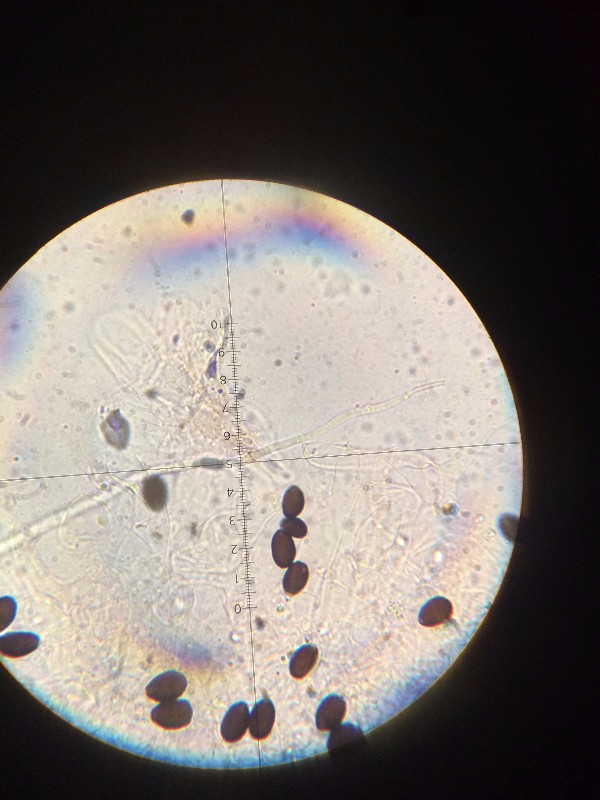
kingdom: Fungi
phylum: Basidiomycota
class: Agaricomycetes
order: Agaricales
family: Psathyrellaceae
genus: Parasola
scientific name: Parasola plicatilis
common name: plæne-hjulhat
